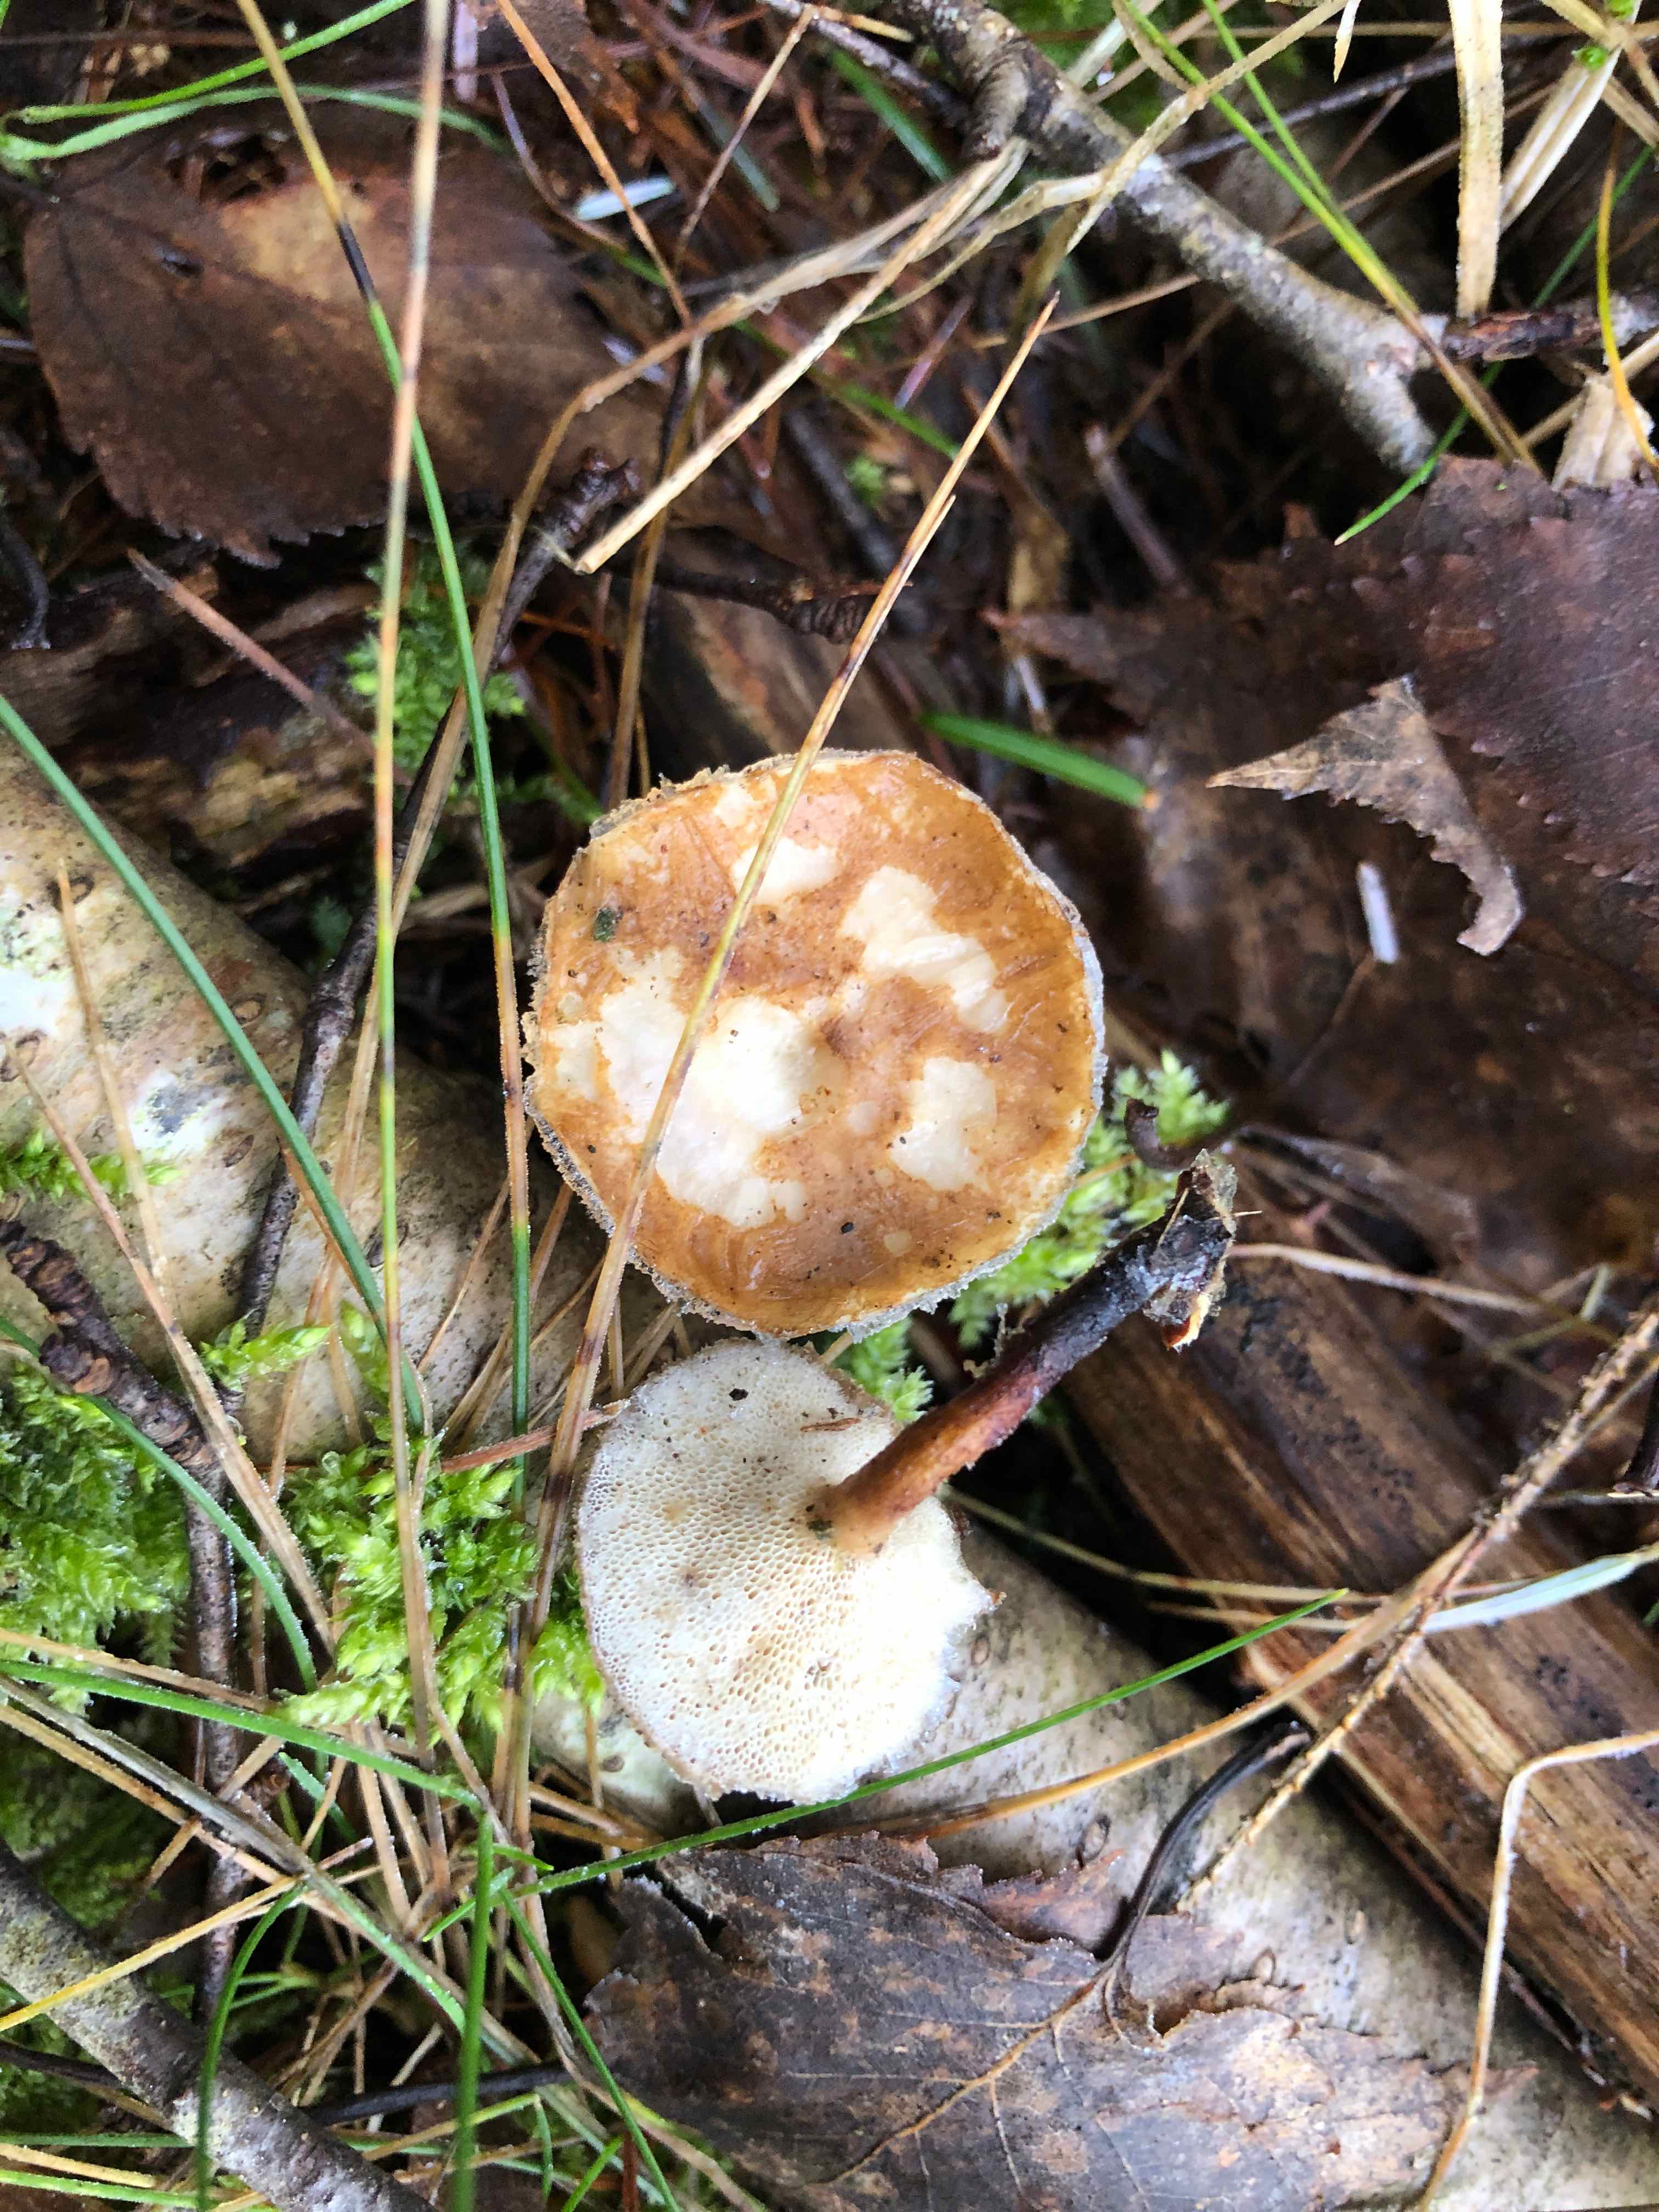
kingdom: Fungi
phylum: Basidiomycota
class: Agaricomycetes
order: Polyporales
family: Polyporaceae
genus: Lentinus
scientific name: Lentinus brumalis
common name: vinter-stilkporesvamp
